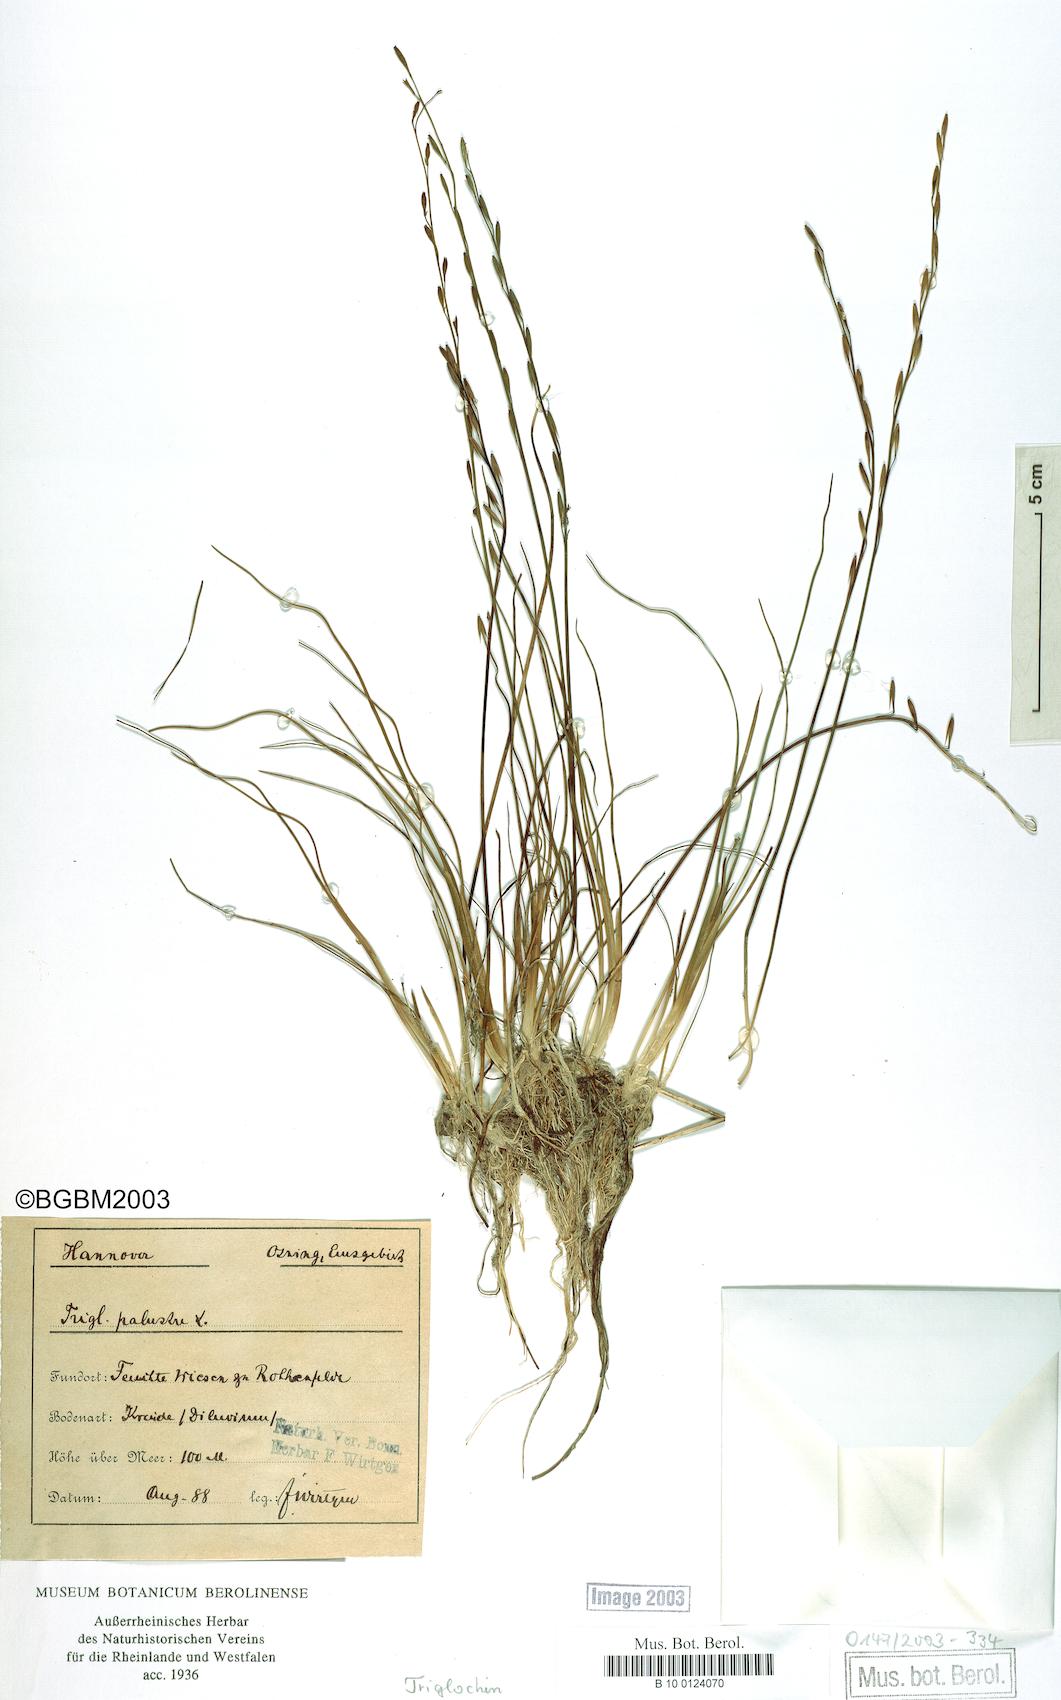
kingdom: Plantae
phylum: Tracheophyta
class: Liliopsida
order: Alismatales
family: Juncaginaceae
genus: Triglochin
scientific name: Triglochin palustris
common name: Marsh arrowgrass
